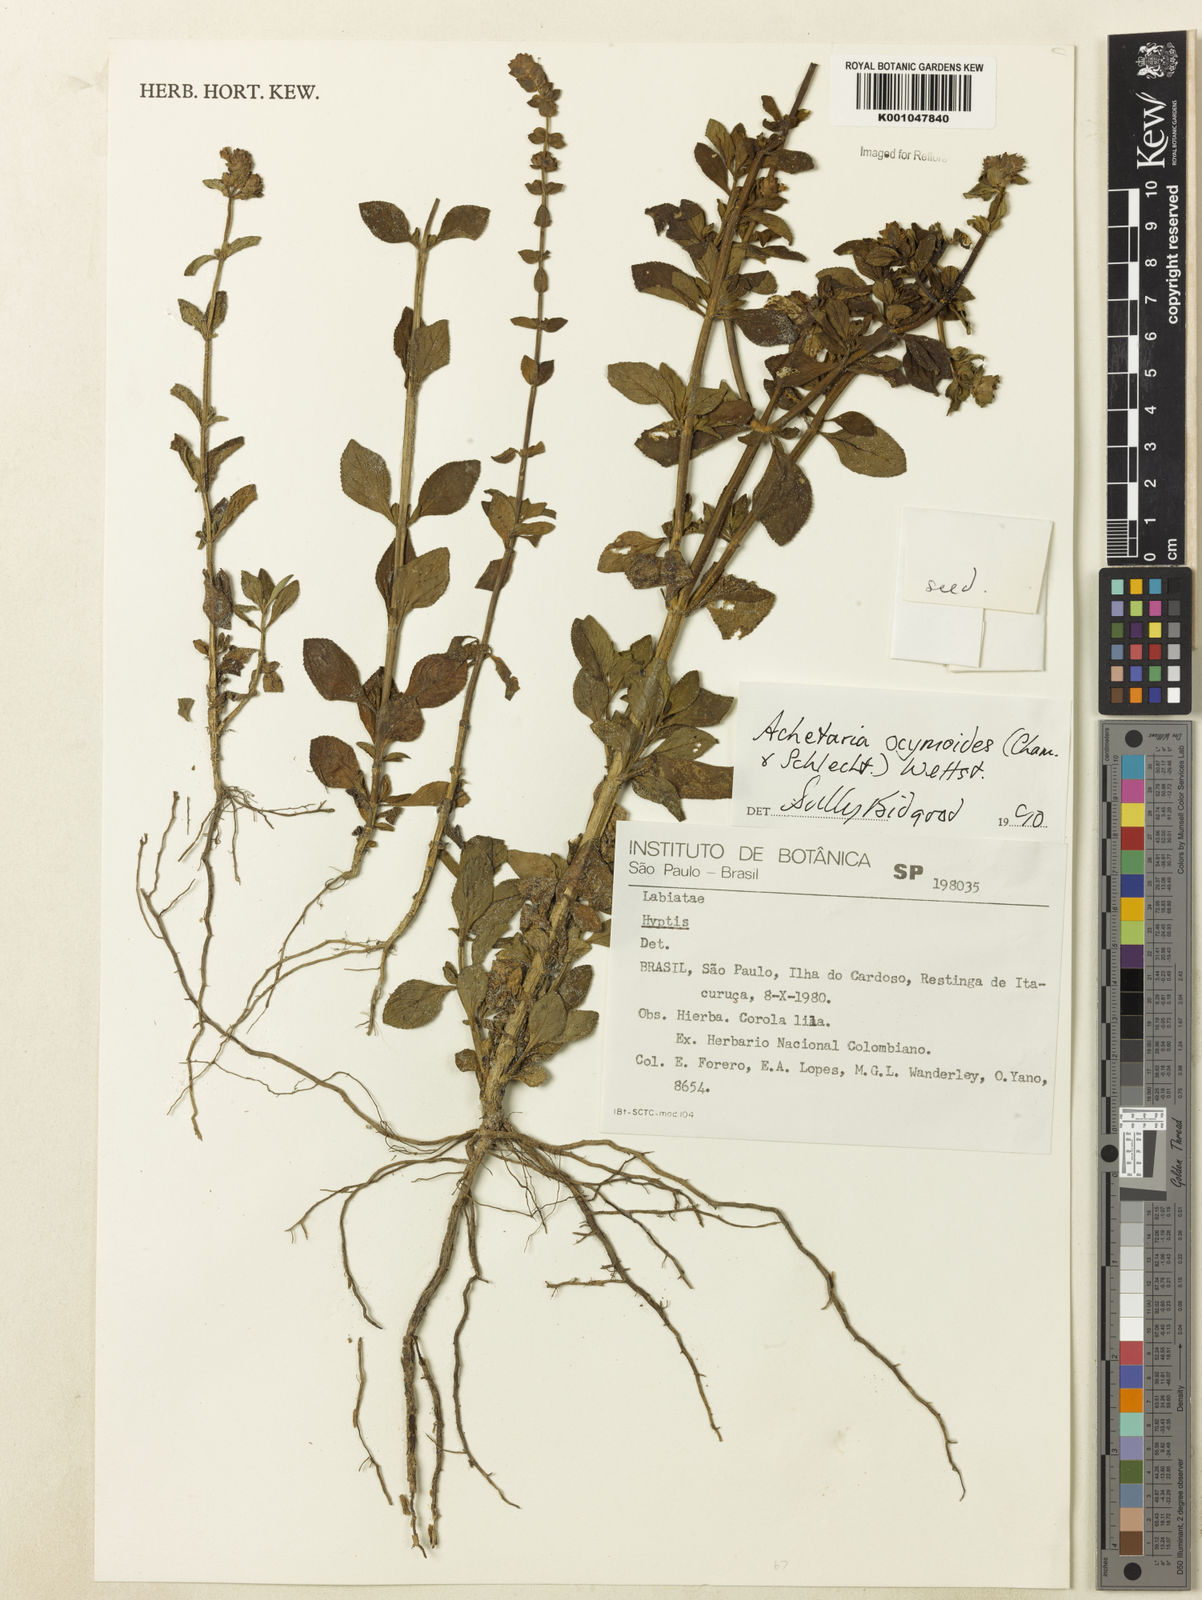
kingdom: Plantae
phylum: Tracheophyta
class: Magnoliopsida
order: Lamiales
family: Plantaginaceae
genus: Matourea
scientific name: Matourea ocymoides
